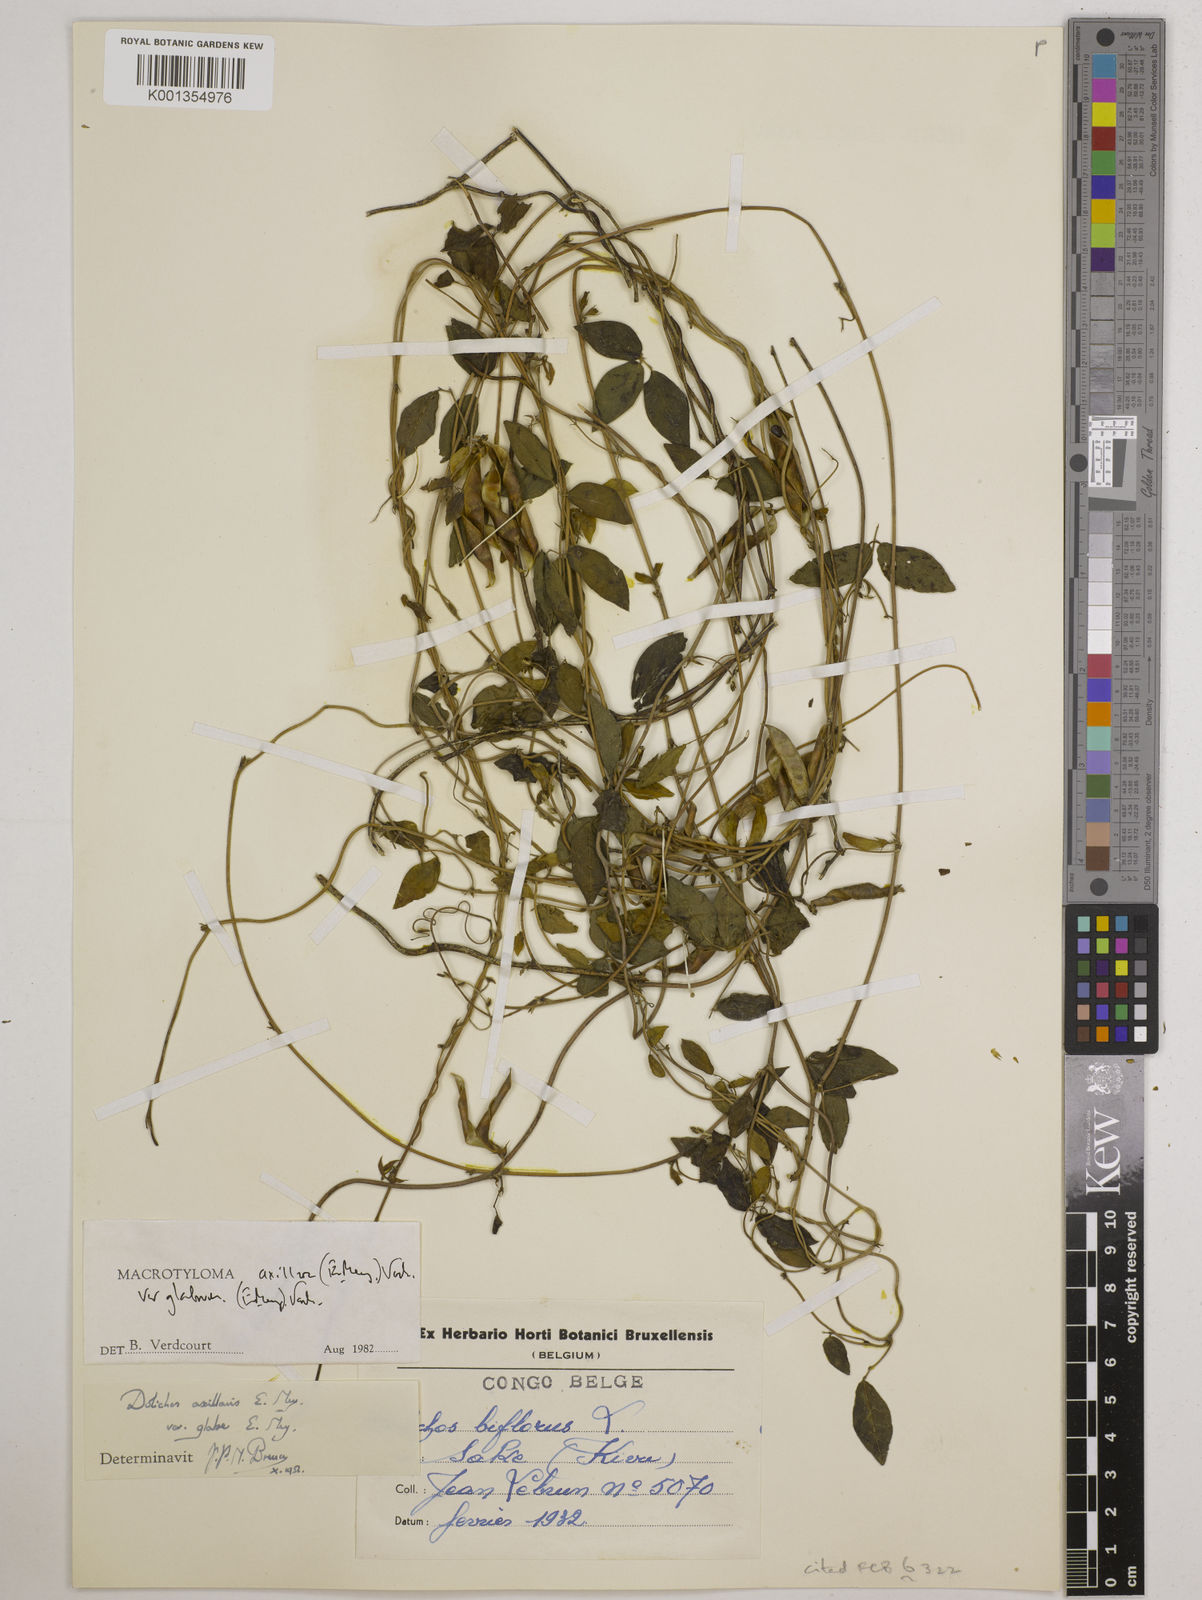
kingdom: Plantae
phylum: Tracheophyta
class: Magnoliopsida
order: Fabales
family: Fabaceae
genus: Macrotyloma
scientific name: Macrotyloma
